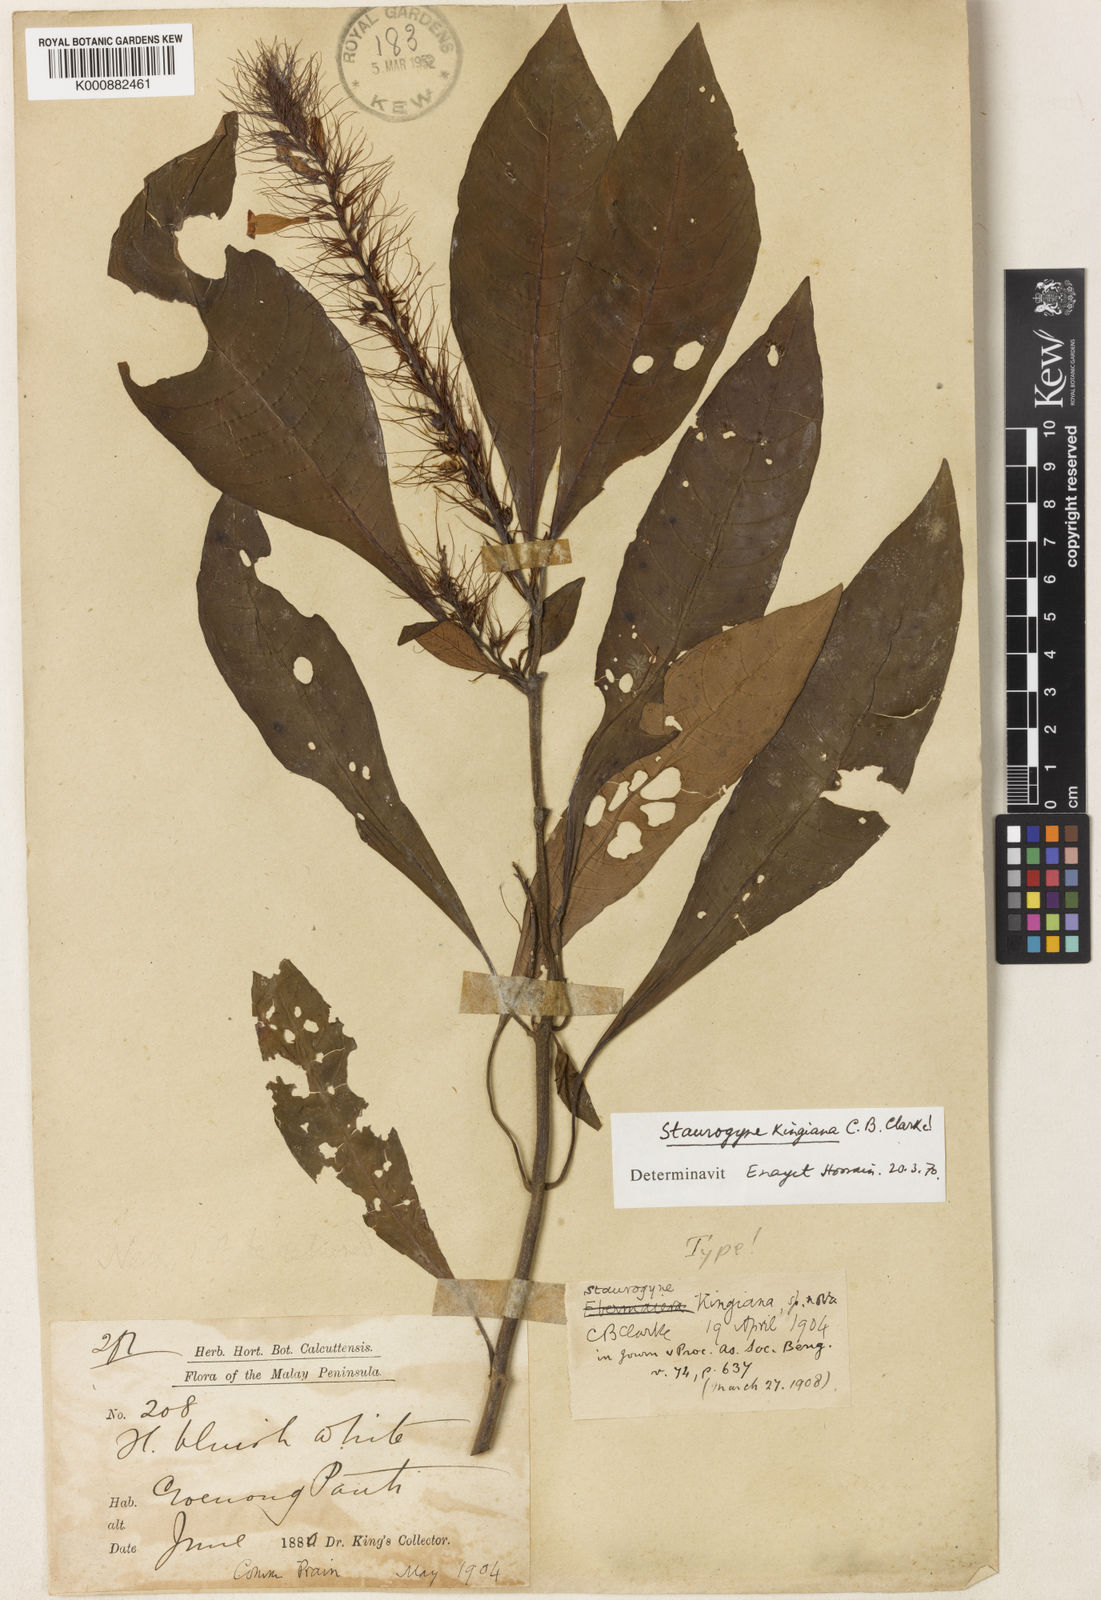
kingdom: Plantae
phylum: Tracheophyta
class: Magnoliopsida
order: Lamiales
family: Acanthaceae
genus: Staurogyne
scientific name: Staurogyne kingiana
